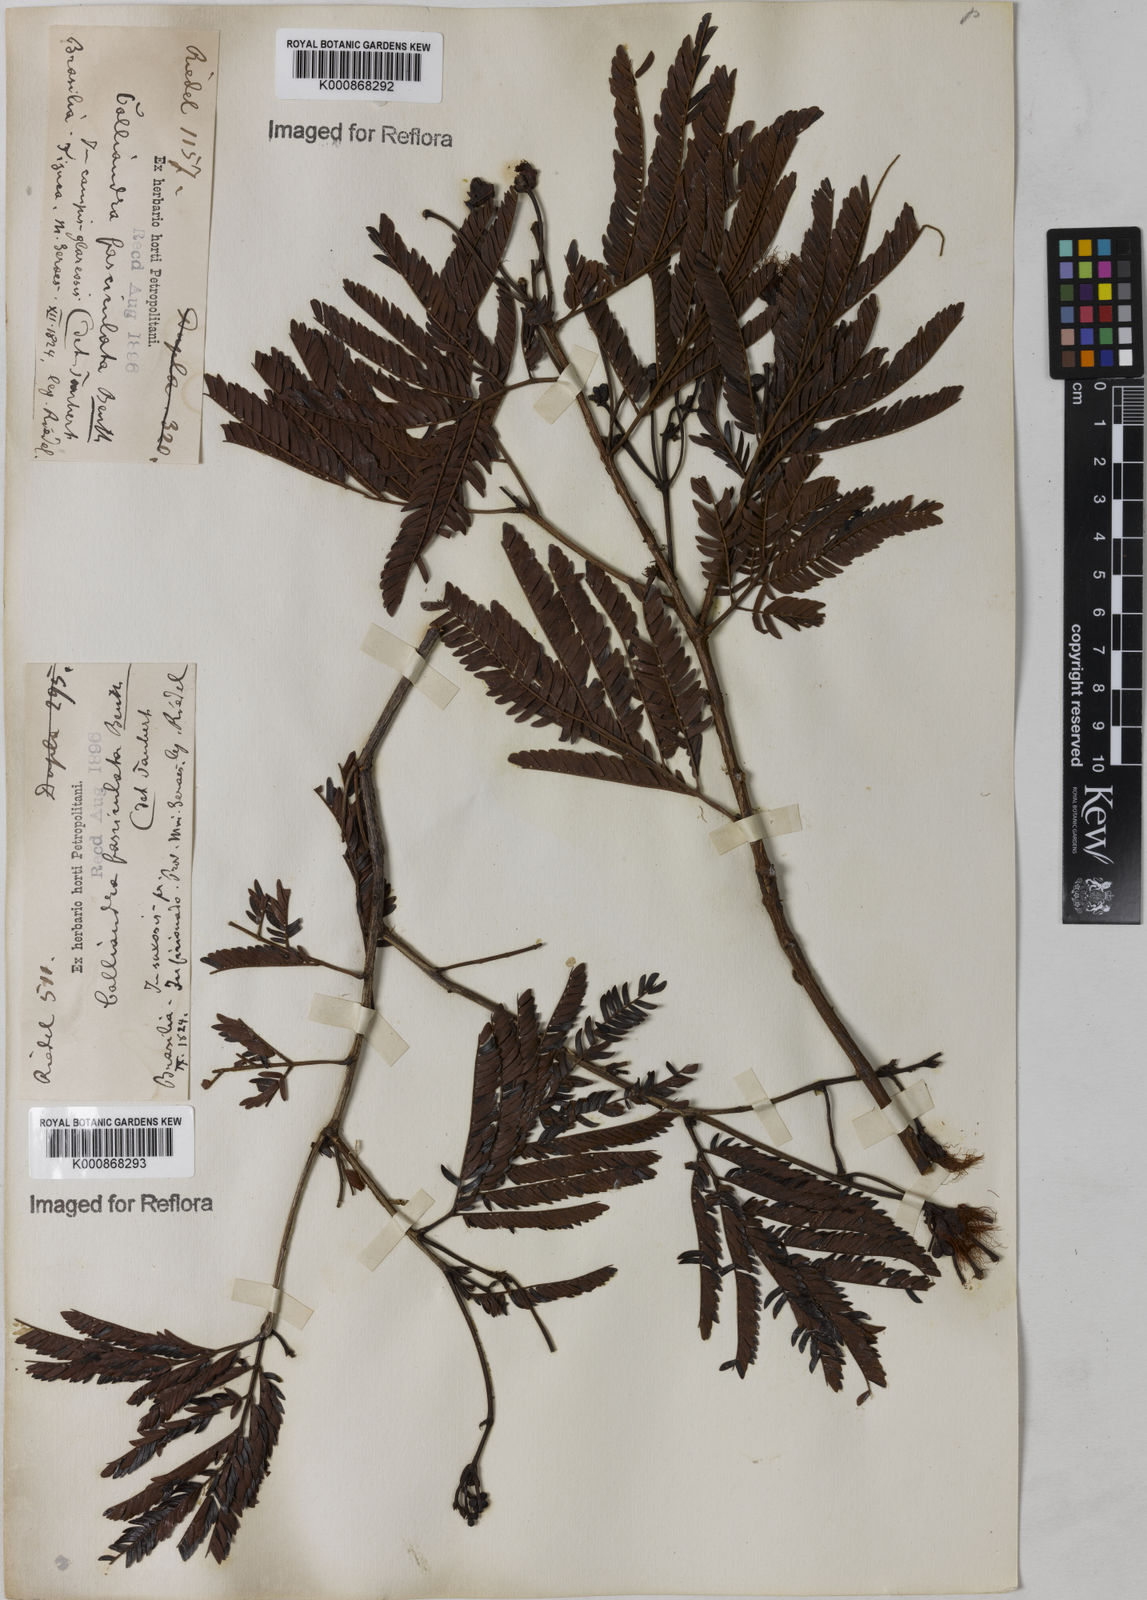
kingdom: Plantae
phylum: Tracheophyta
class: Magnoliopsida
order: Fabales
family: Fabaceae
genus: Calliandra
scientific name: Calliandra fasciculata
